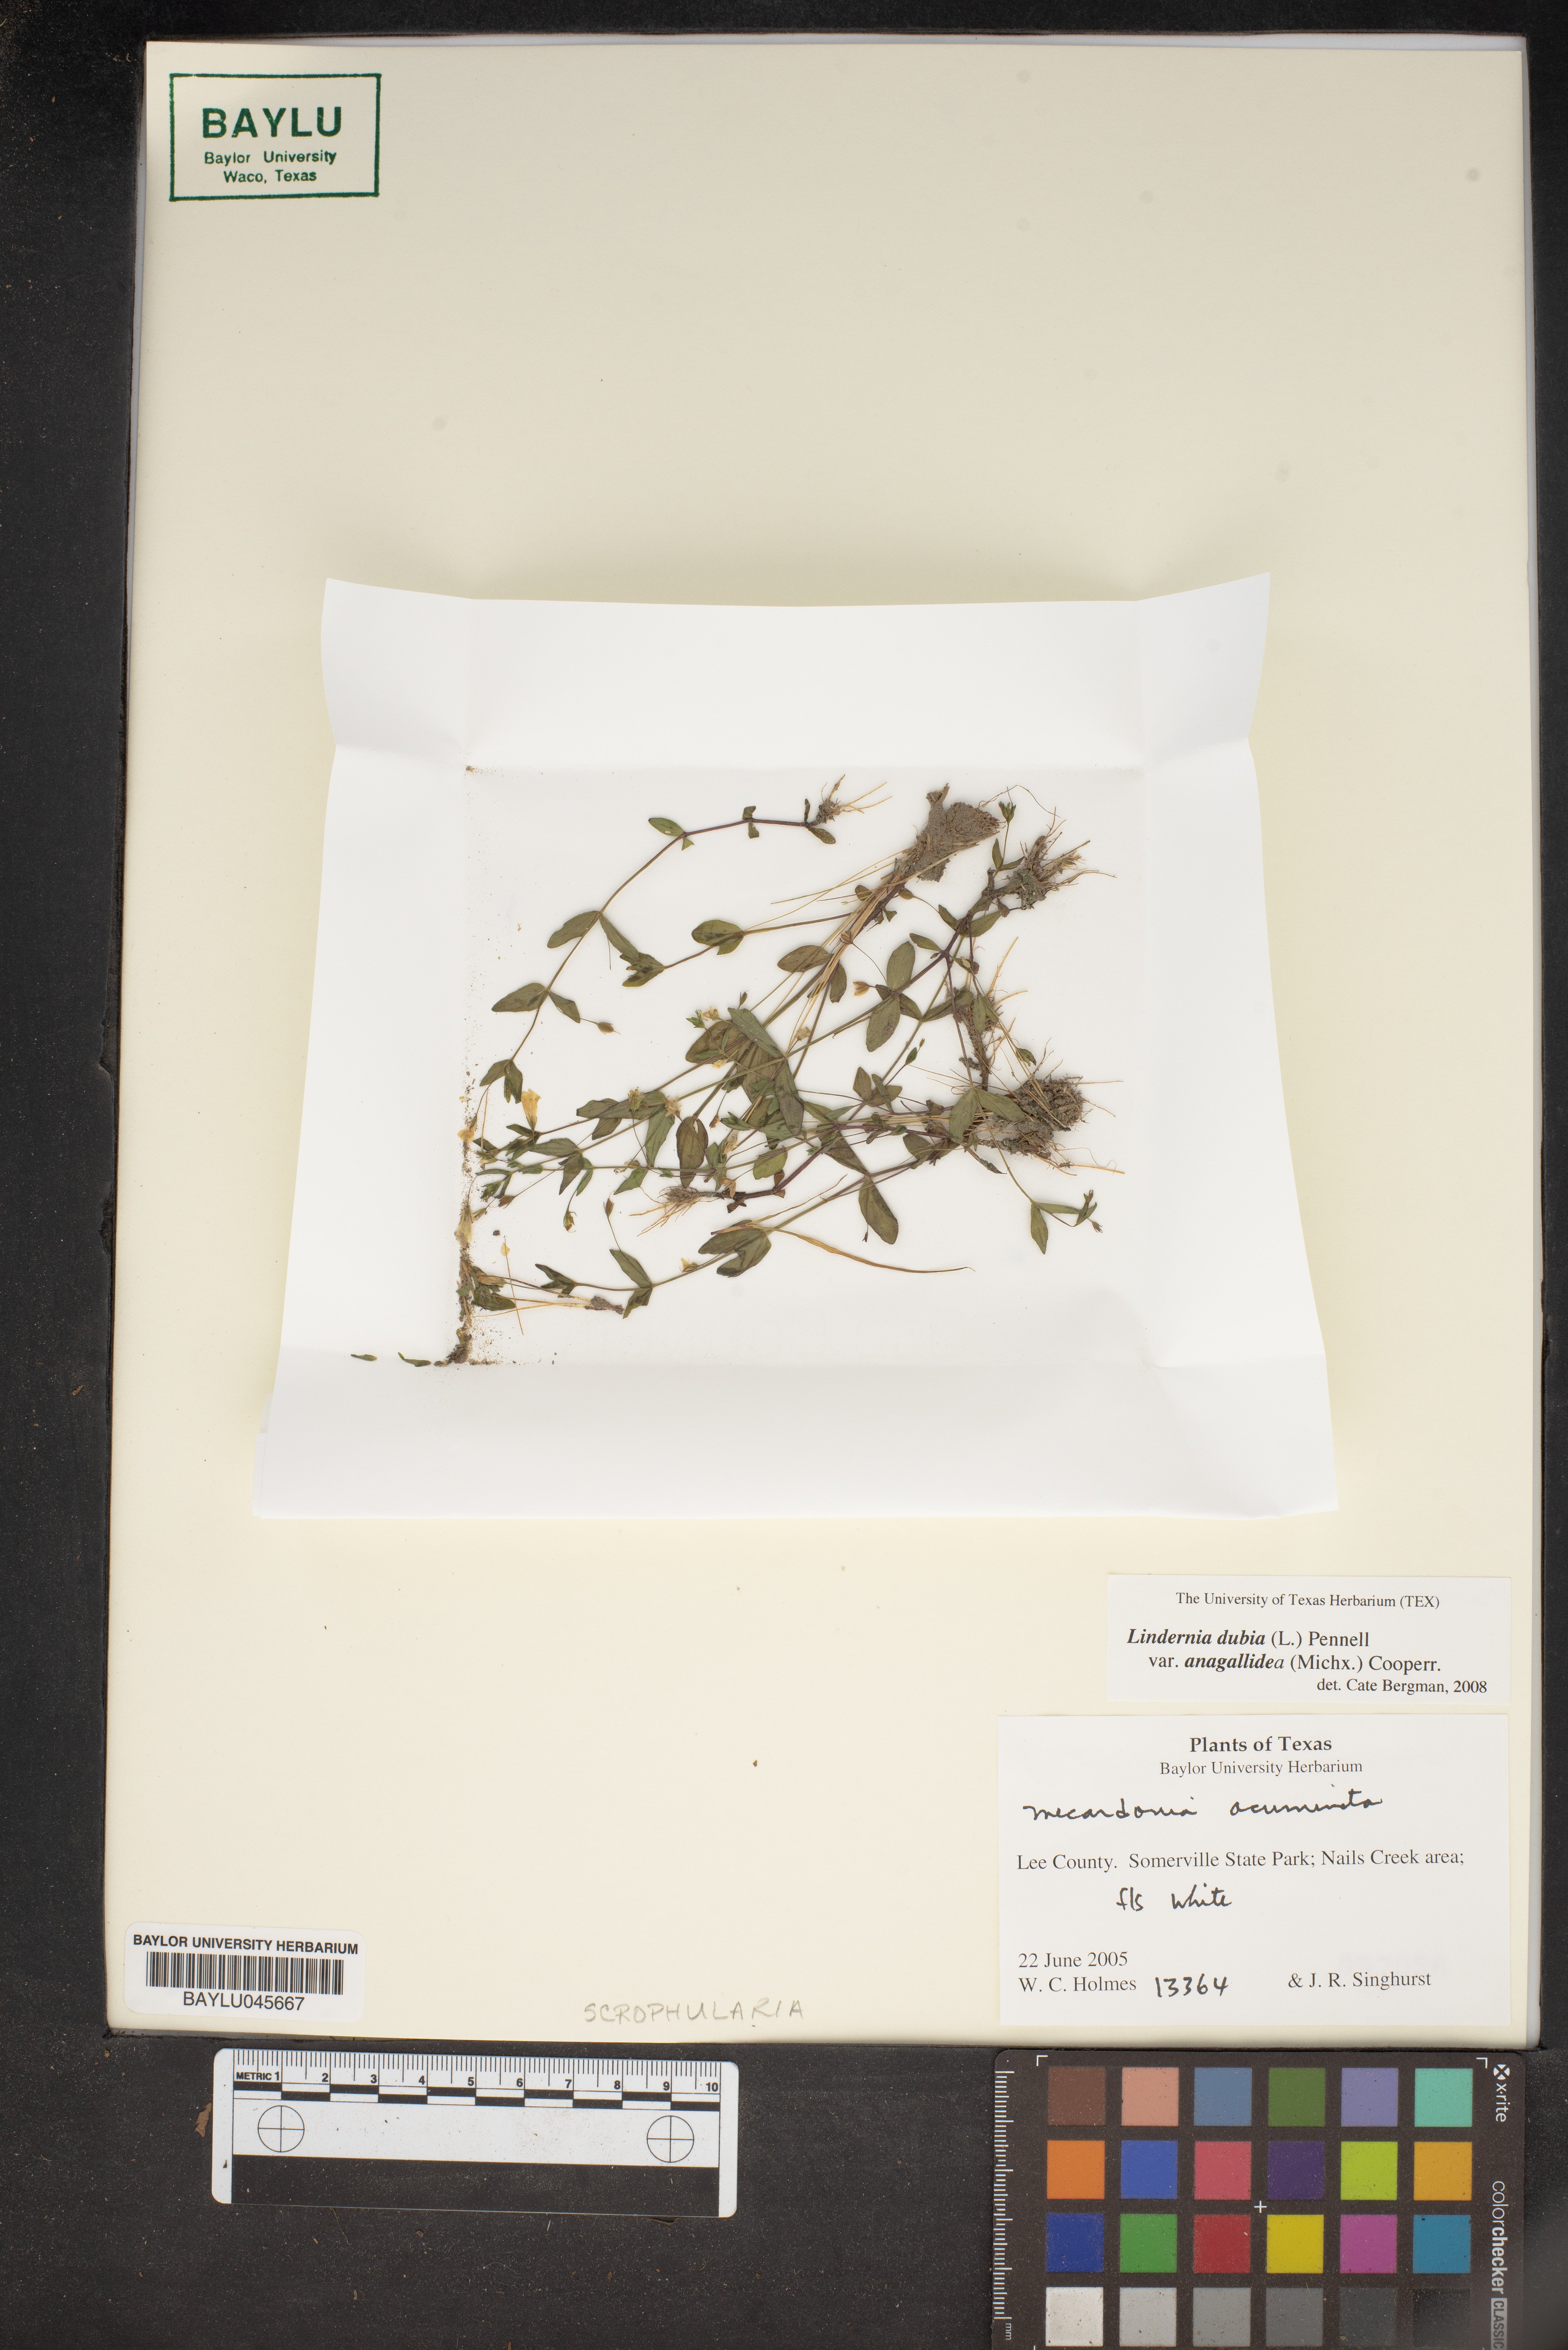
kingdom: Plantae
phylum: Tracheophyta
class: Magnoliopsida
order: Lamiales
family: Linderniaceae
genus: Lindernia
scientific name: Lindernia dubia
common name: Annual false pimpernel
